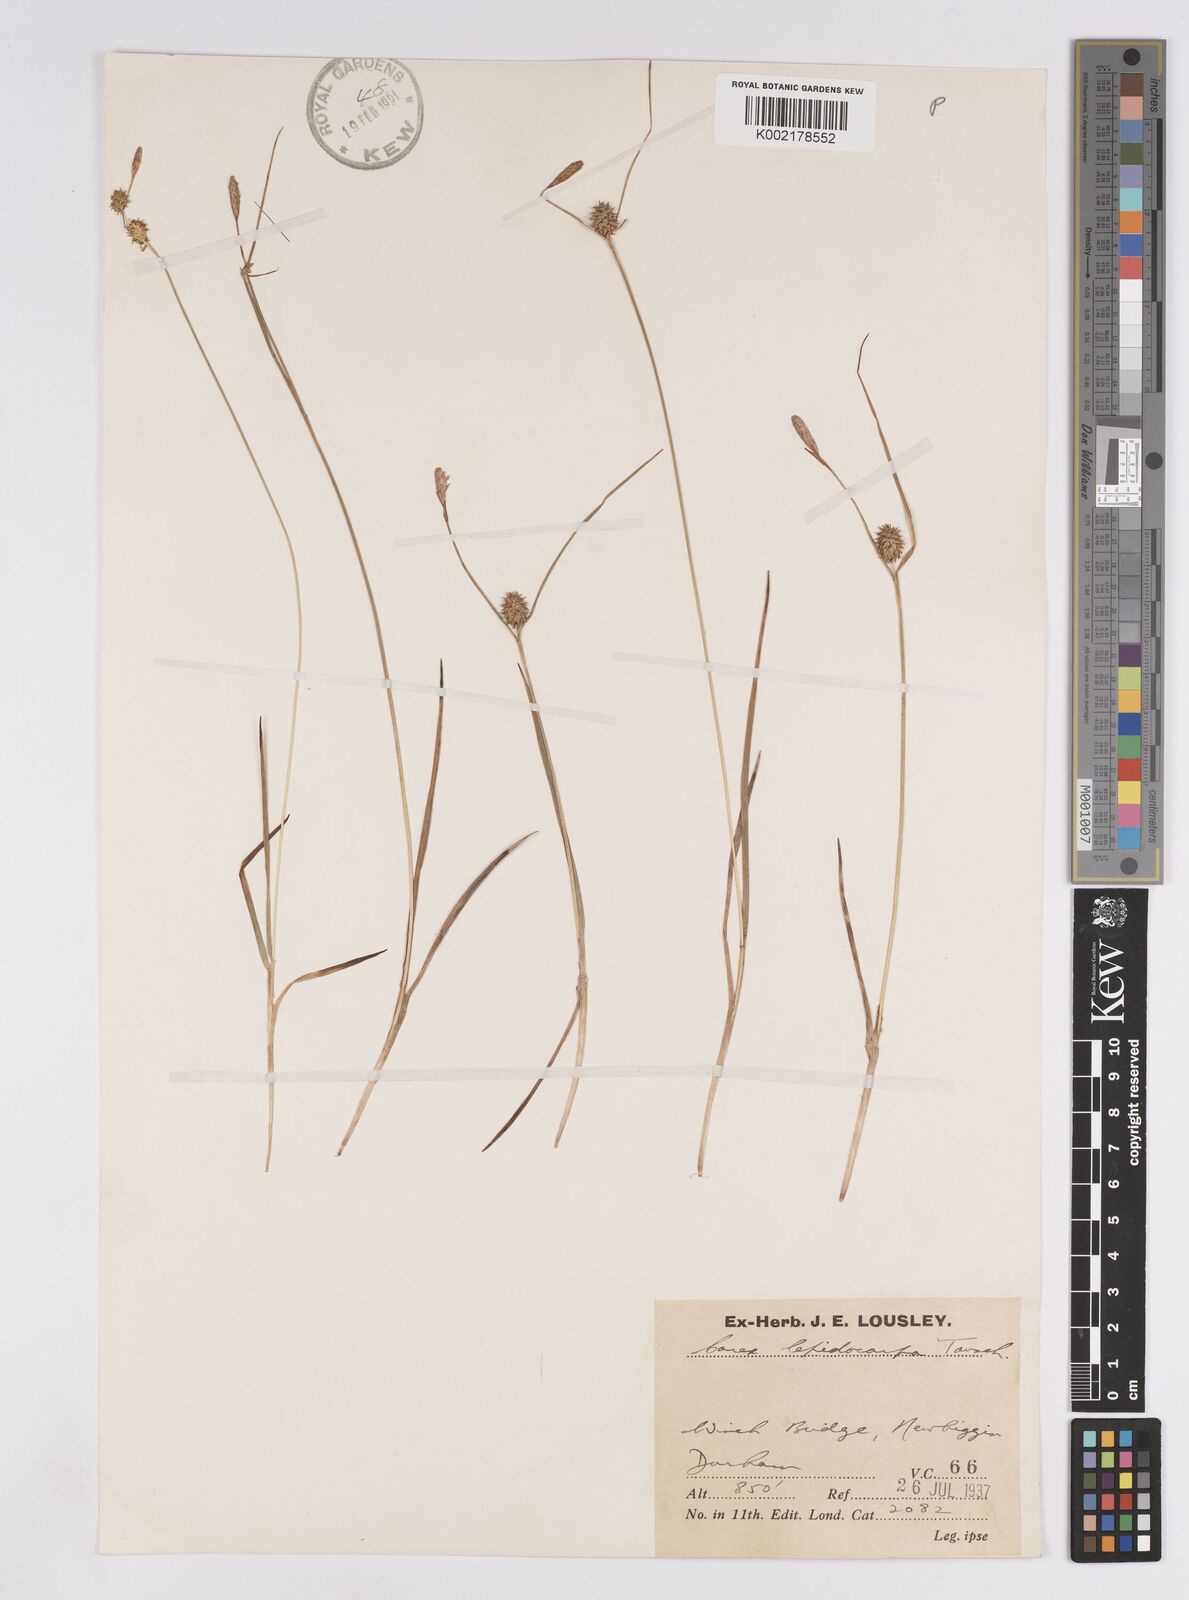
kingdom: Plantae
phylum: Tracheophyta
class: Liliopsida
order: Poales
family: Cyperaceae
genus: Carex
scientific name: Carex lepidocarpa
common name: Long-stalked yellow-sedge
